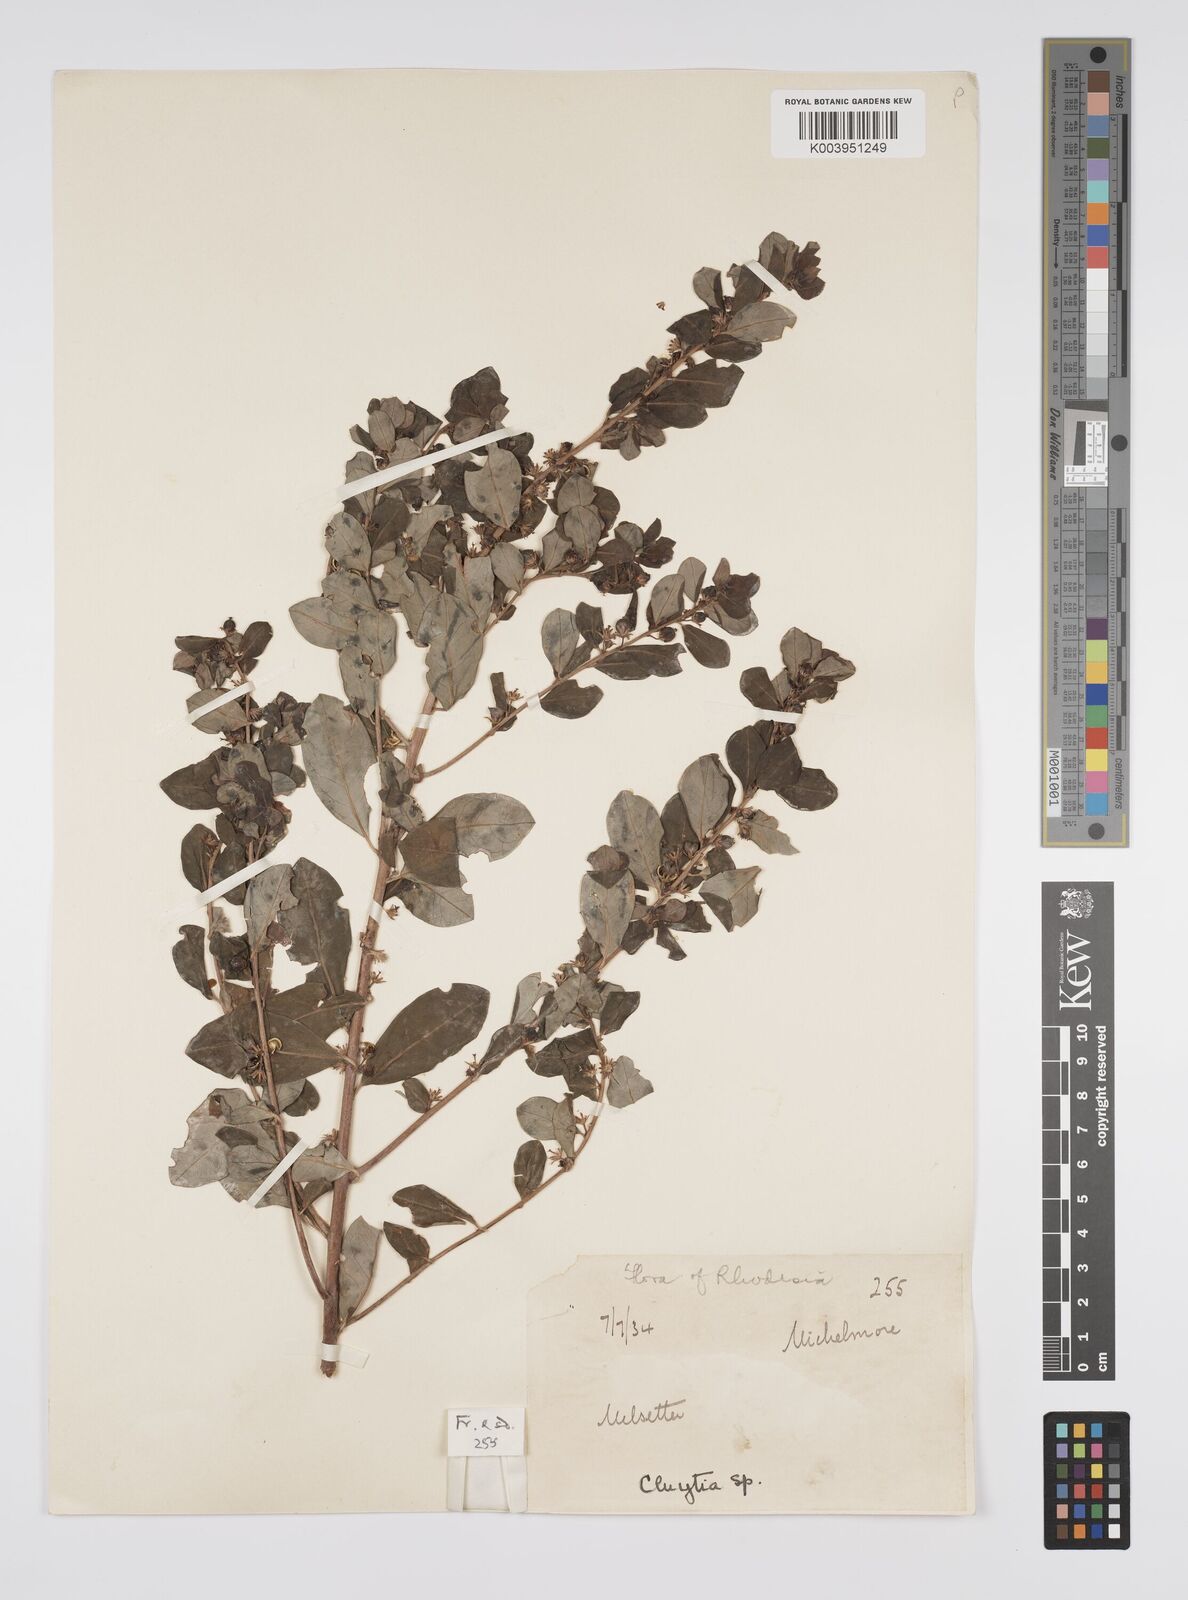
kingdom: Plantae
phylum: Tracheophyta
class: Magnoliopsida
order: Malpighiales
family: Peraceae
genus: Clutia
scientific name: Clutia paxii
